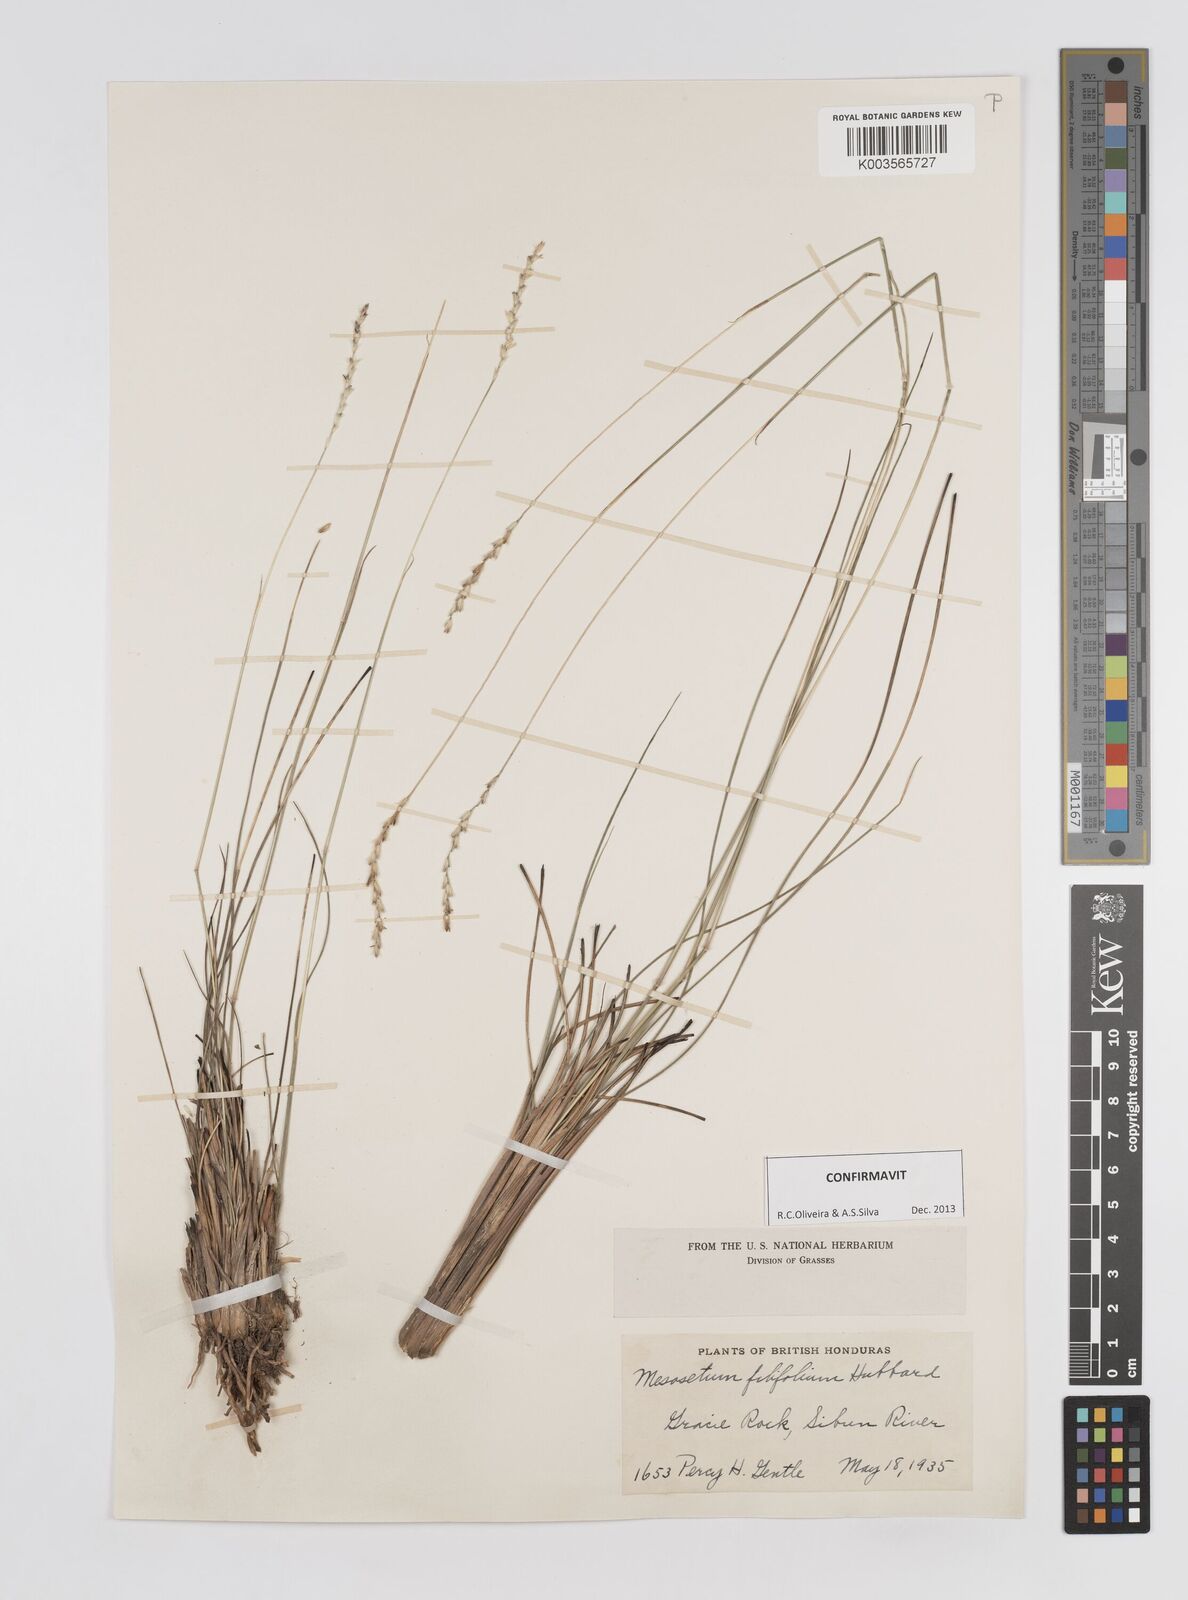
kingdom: Plantae
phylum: Tracheophyta
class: Liliopsida
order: Poales
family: Poaceae
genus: Mesosetum
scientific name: Mesosetum filifolium
